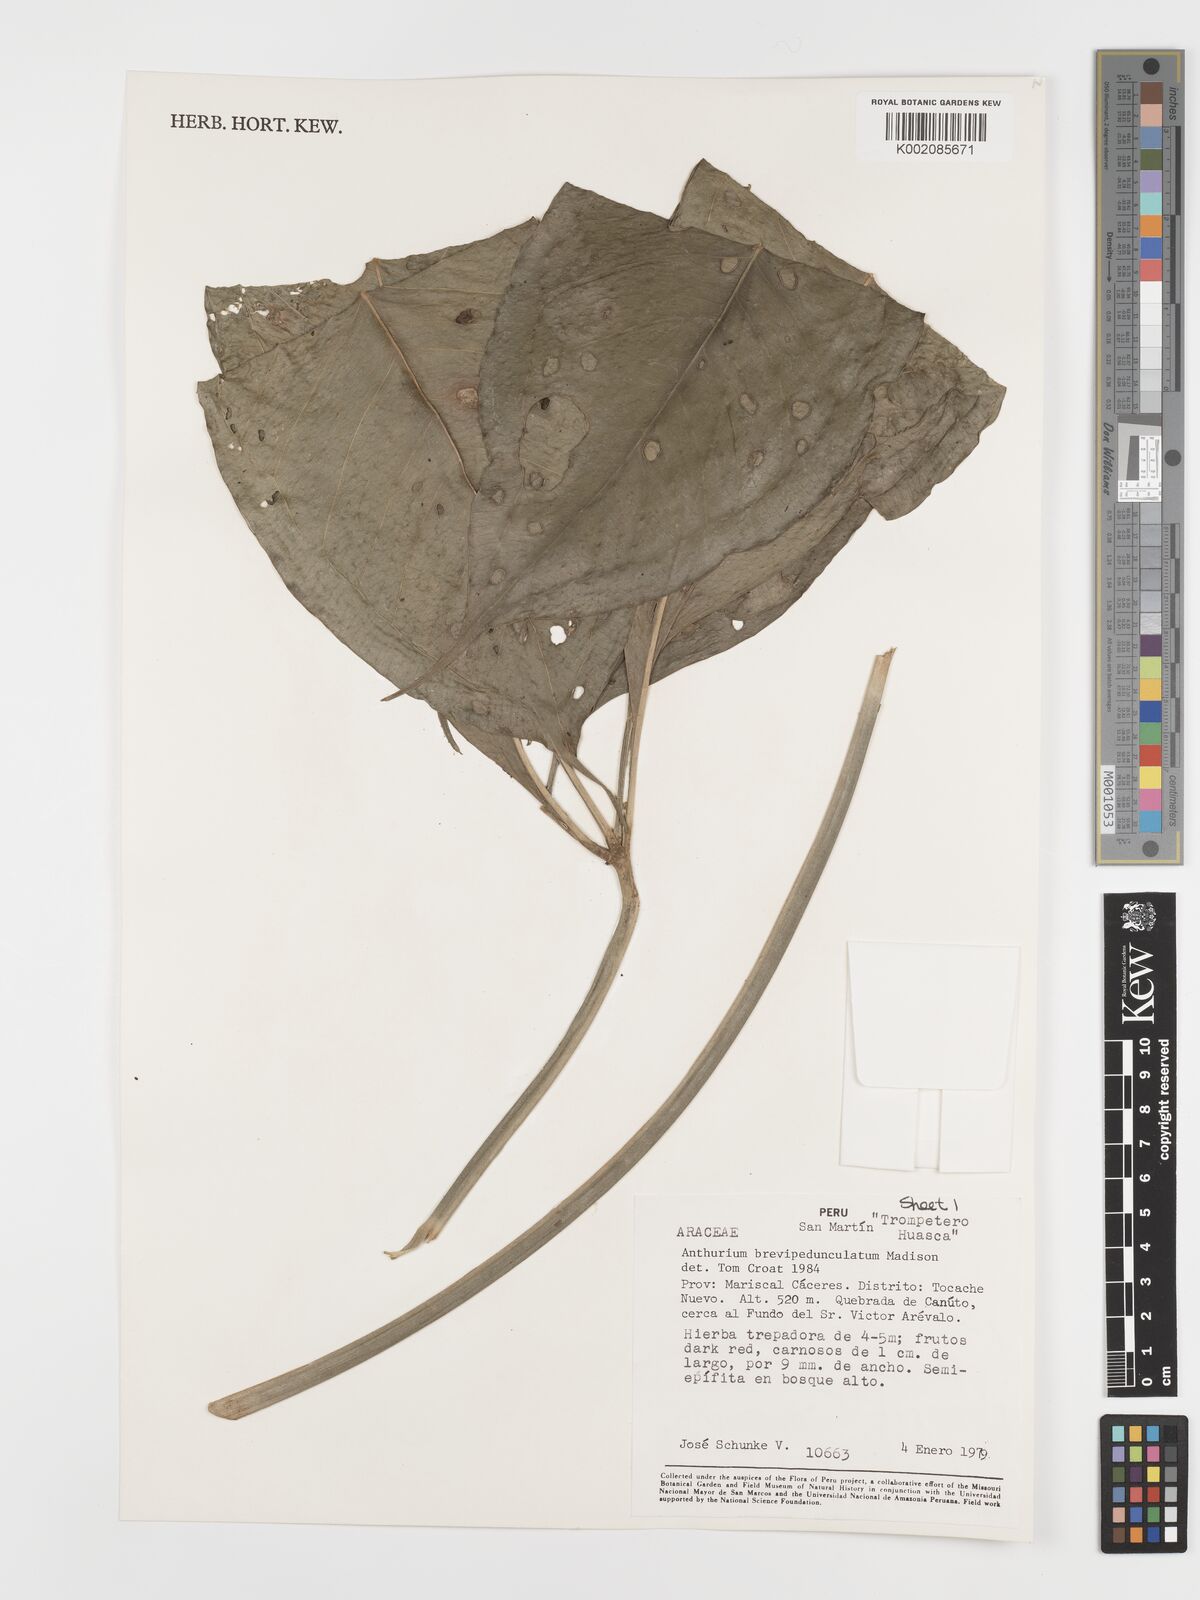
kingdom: Plantae
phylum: Tracheophyta
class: Liliopsida
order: Alismatales
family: Araceae
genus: Anthurium
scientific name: Anthurium brevipedunculatum
